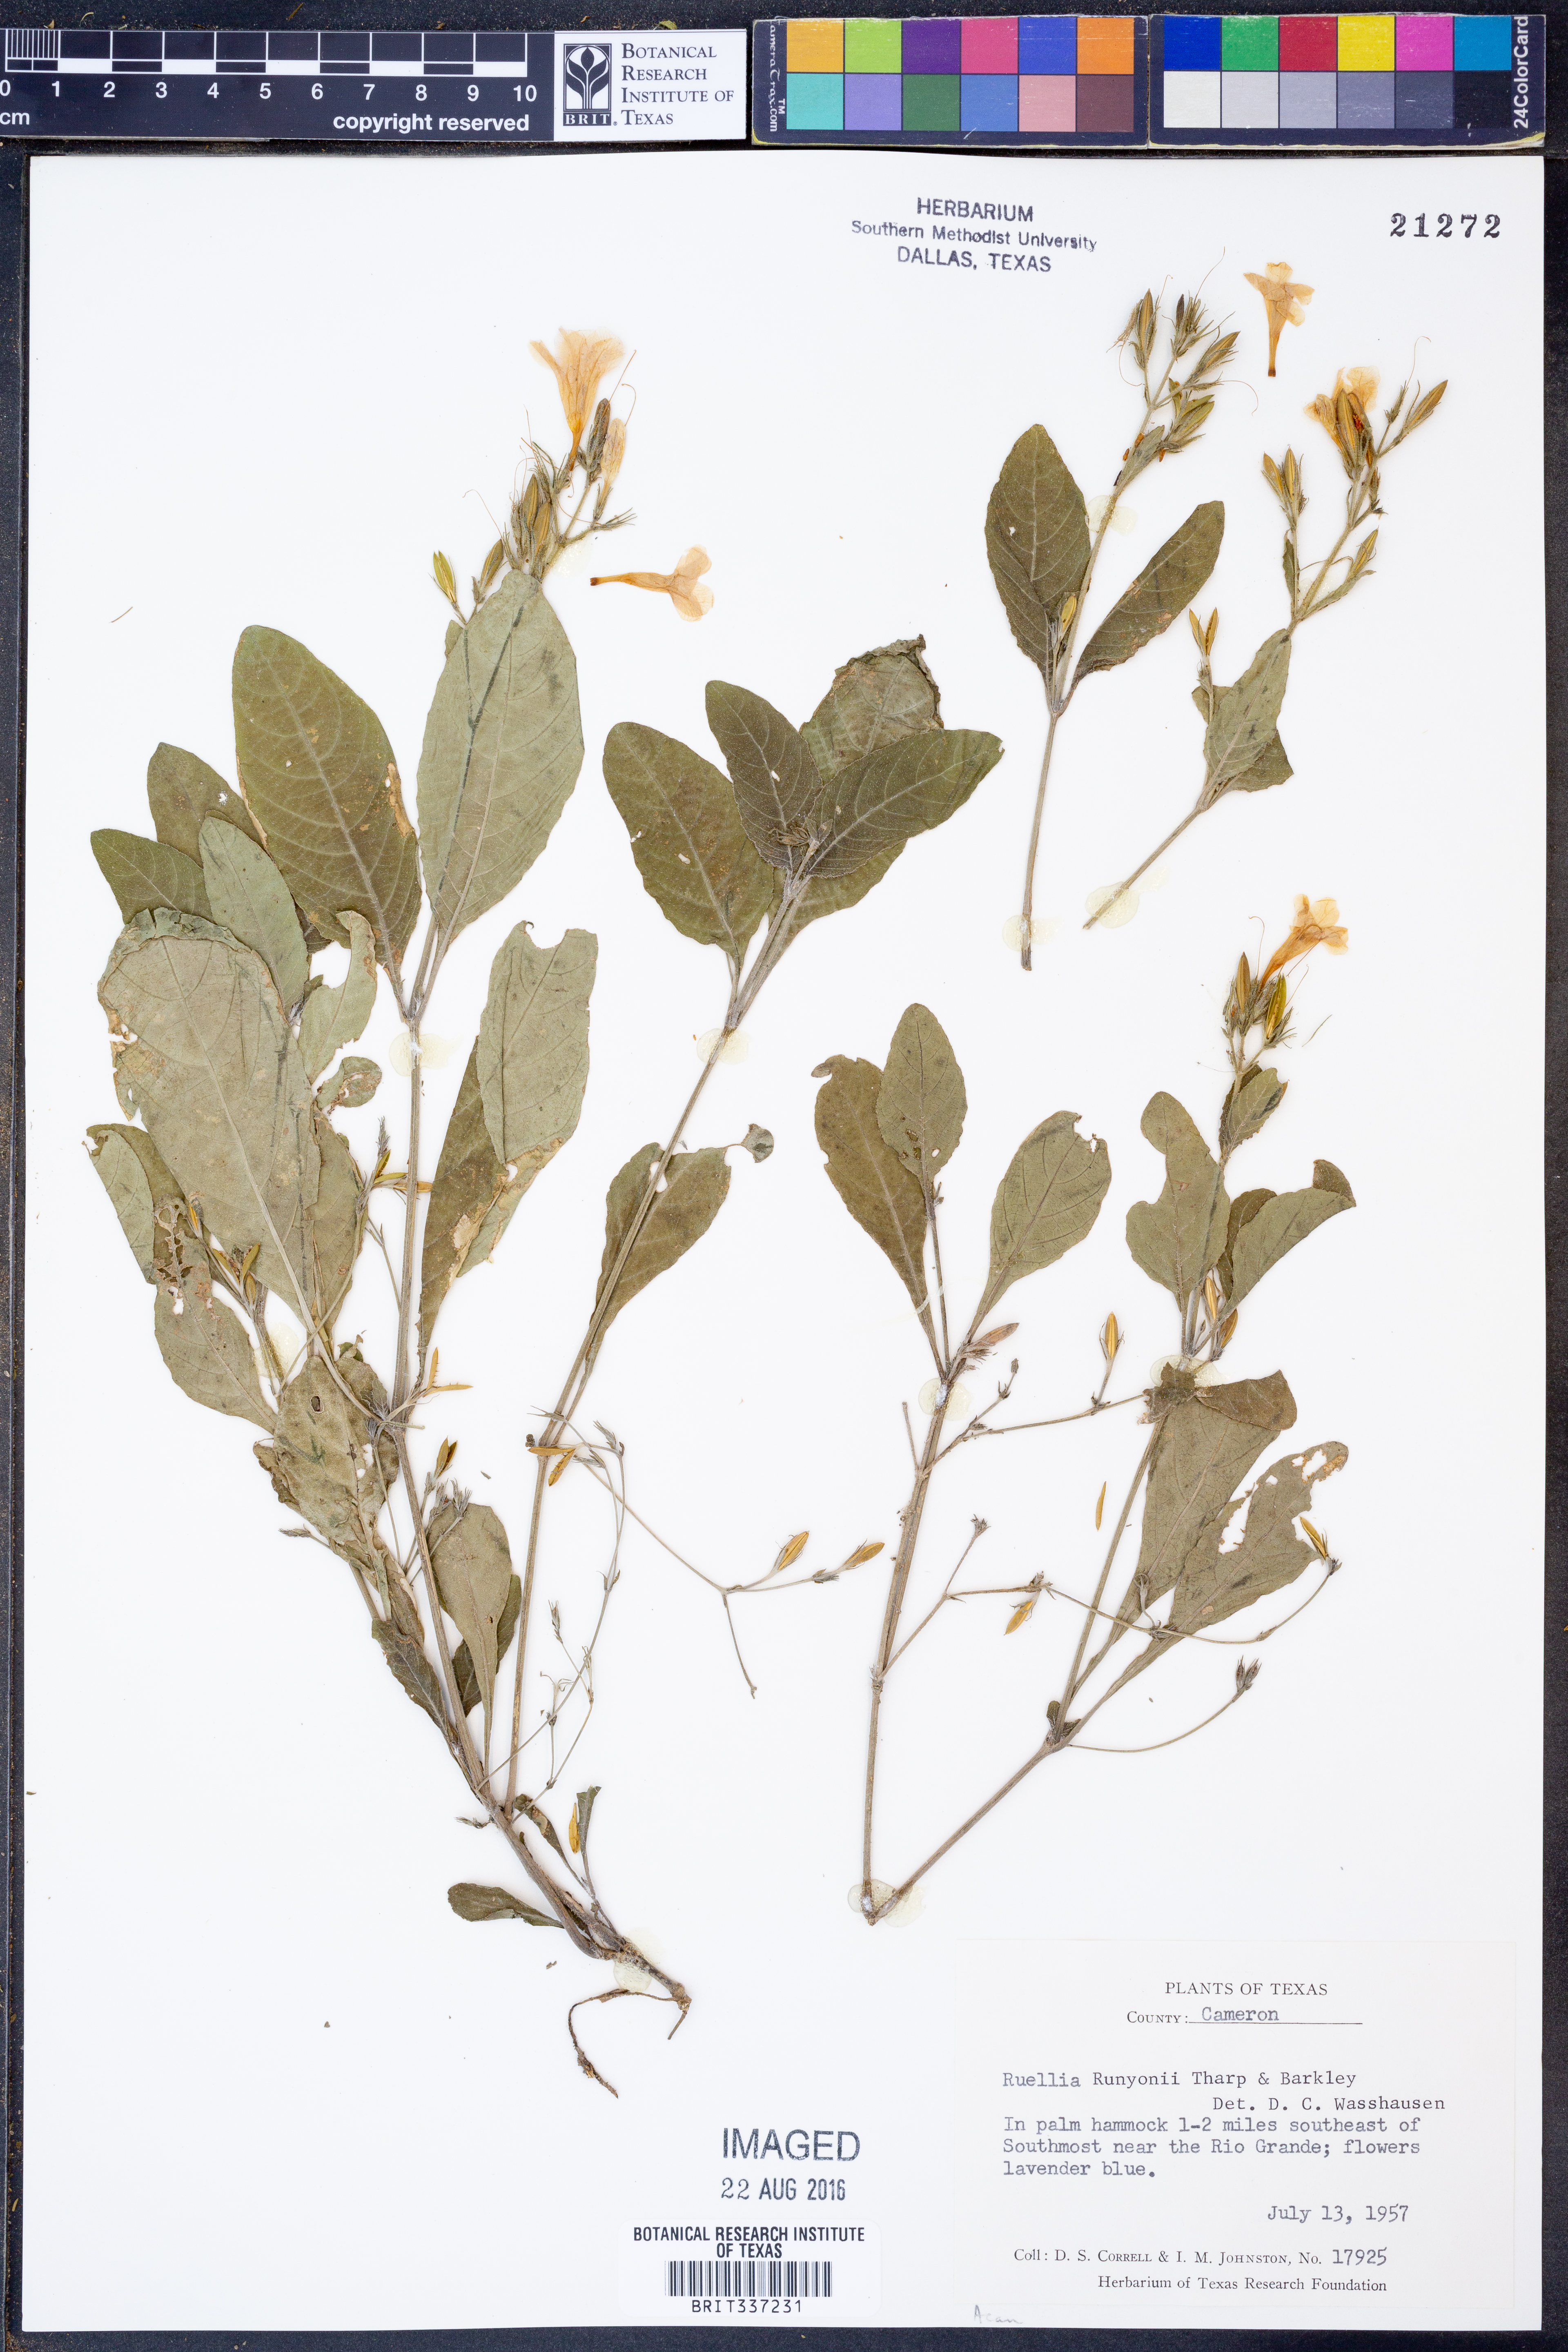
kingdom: Plantae
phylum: Tracheophyta
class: Magnoliopsida
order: Lamiales
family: Acanthaceae
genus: Ruellia
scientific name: Ruellia ciliatiflora
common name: Hairyflower wild petunia
